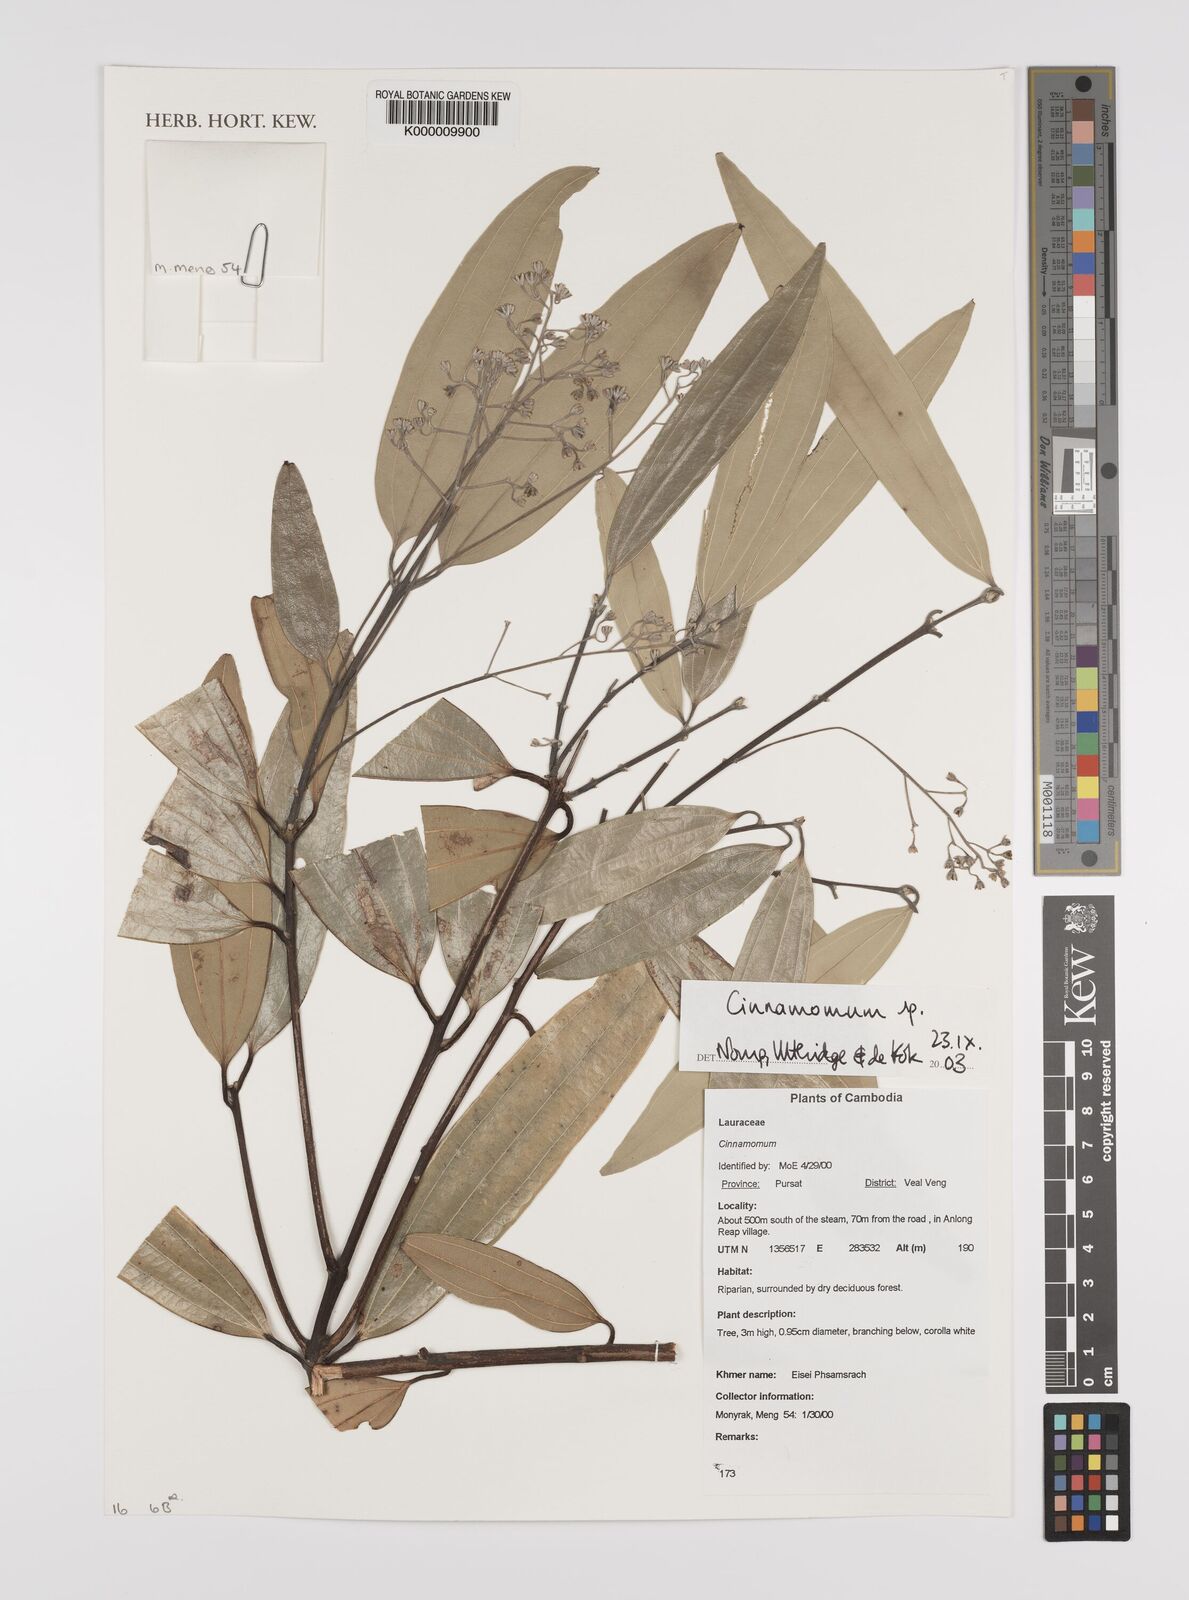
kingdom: Plantae
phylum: Tracheophyta
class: Magnoliopsida
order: Laurales
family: Lauraceae
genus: Cinnamomum
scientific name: Cinnamomum
